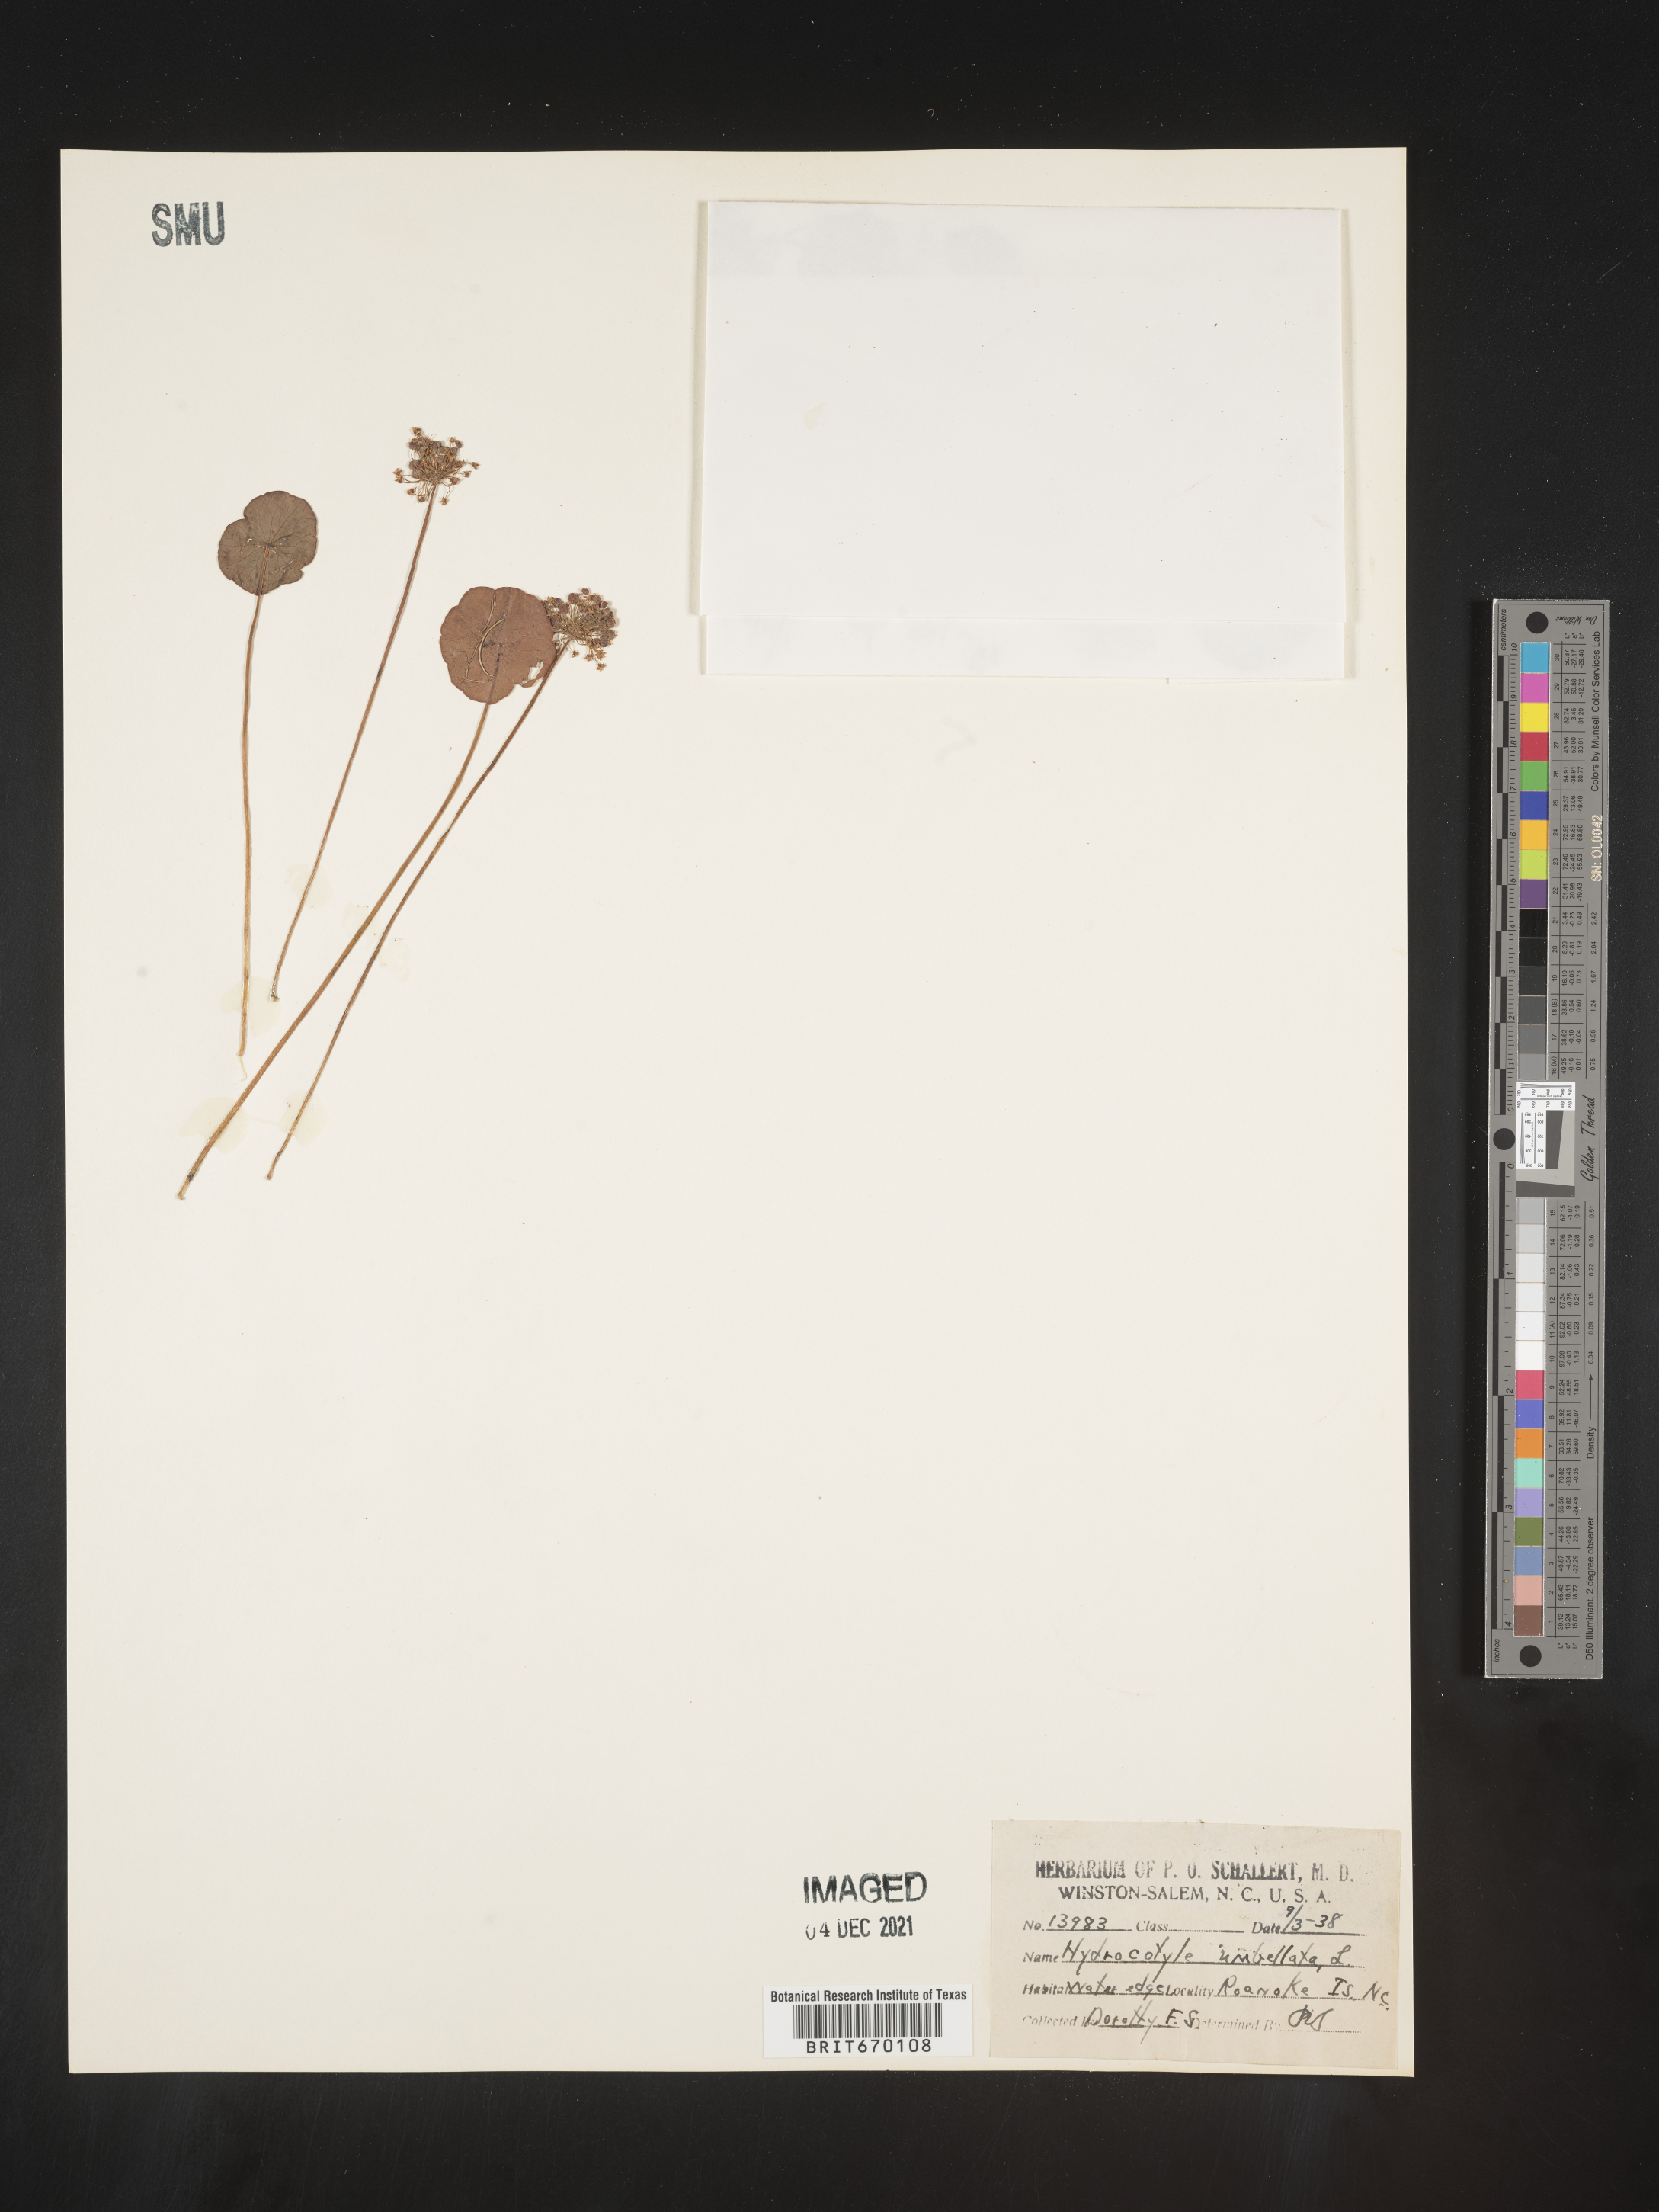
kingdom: Plantae
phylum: Tracheophyta
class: Magnoliopsida
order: Apiales
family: Araliaceae
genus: Hydrocotyle
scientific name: Hydrocotyle umbellata
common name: Water pennywort
